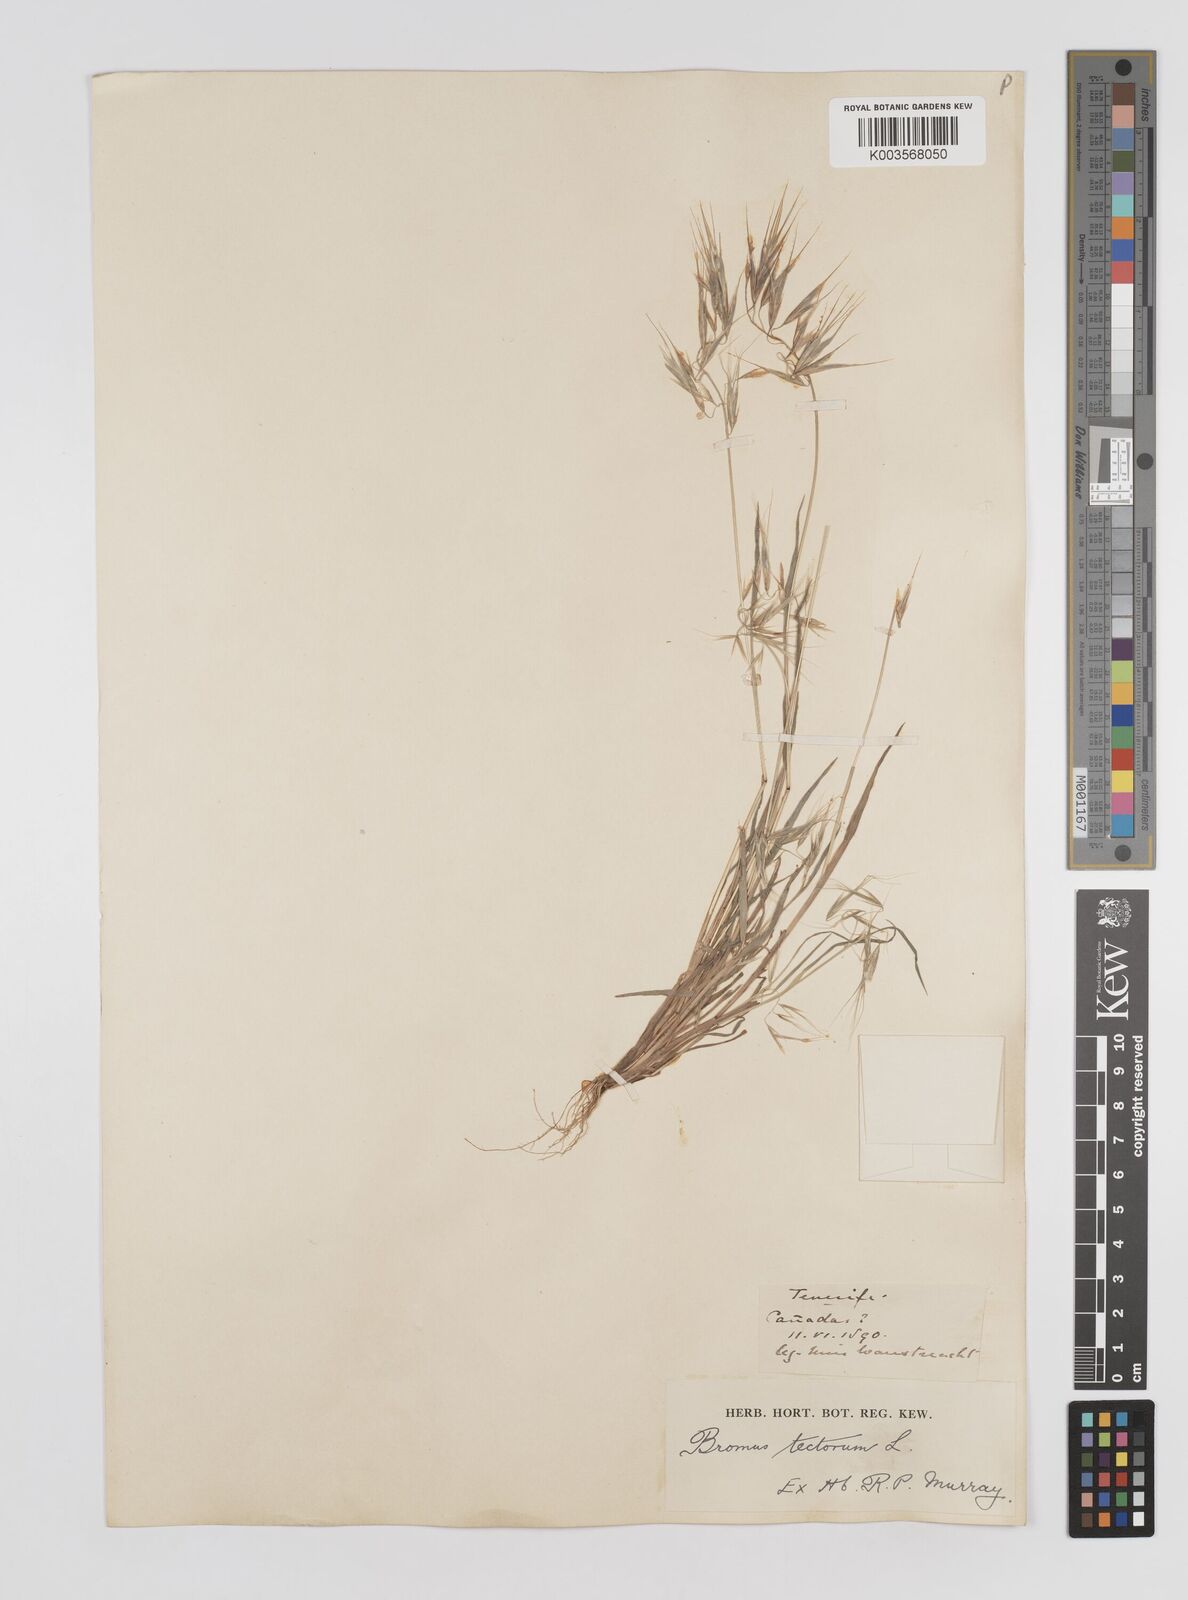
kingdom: Plantae
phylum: Tracheophyta
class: Liliopsida
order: Poales
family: Poaceae
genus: Bromus
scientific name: Bromus tectorum
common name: Cheatgrass
